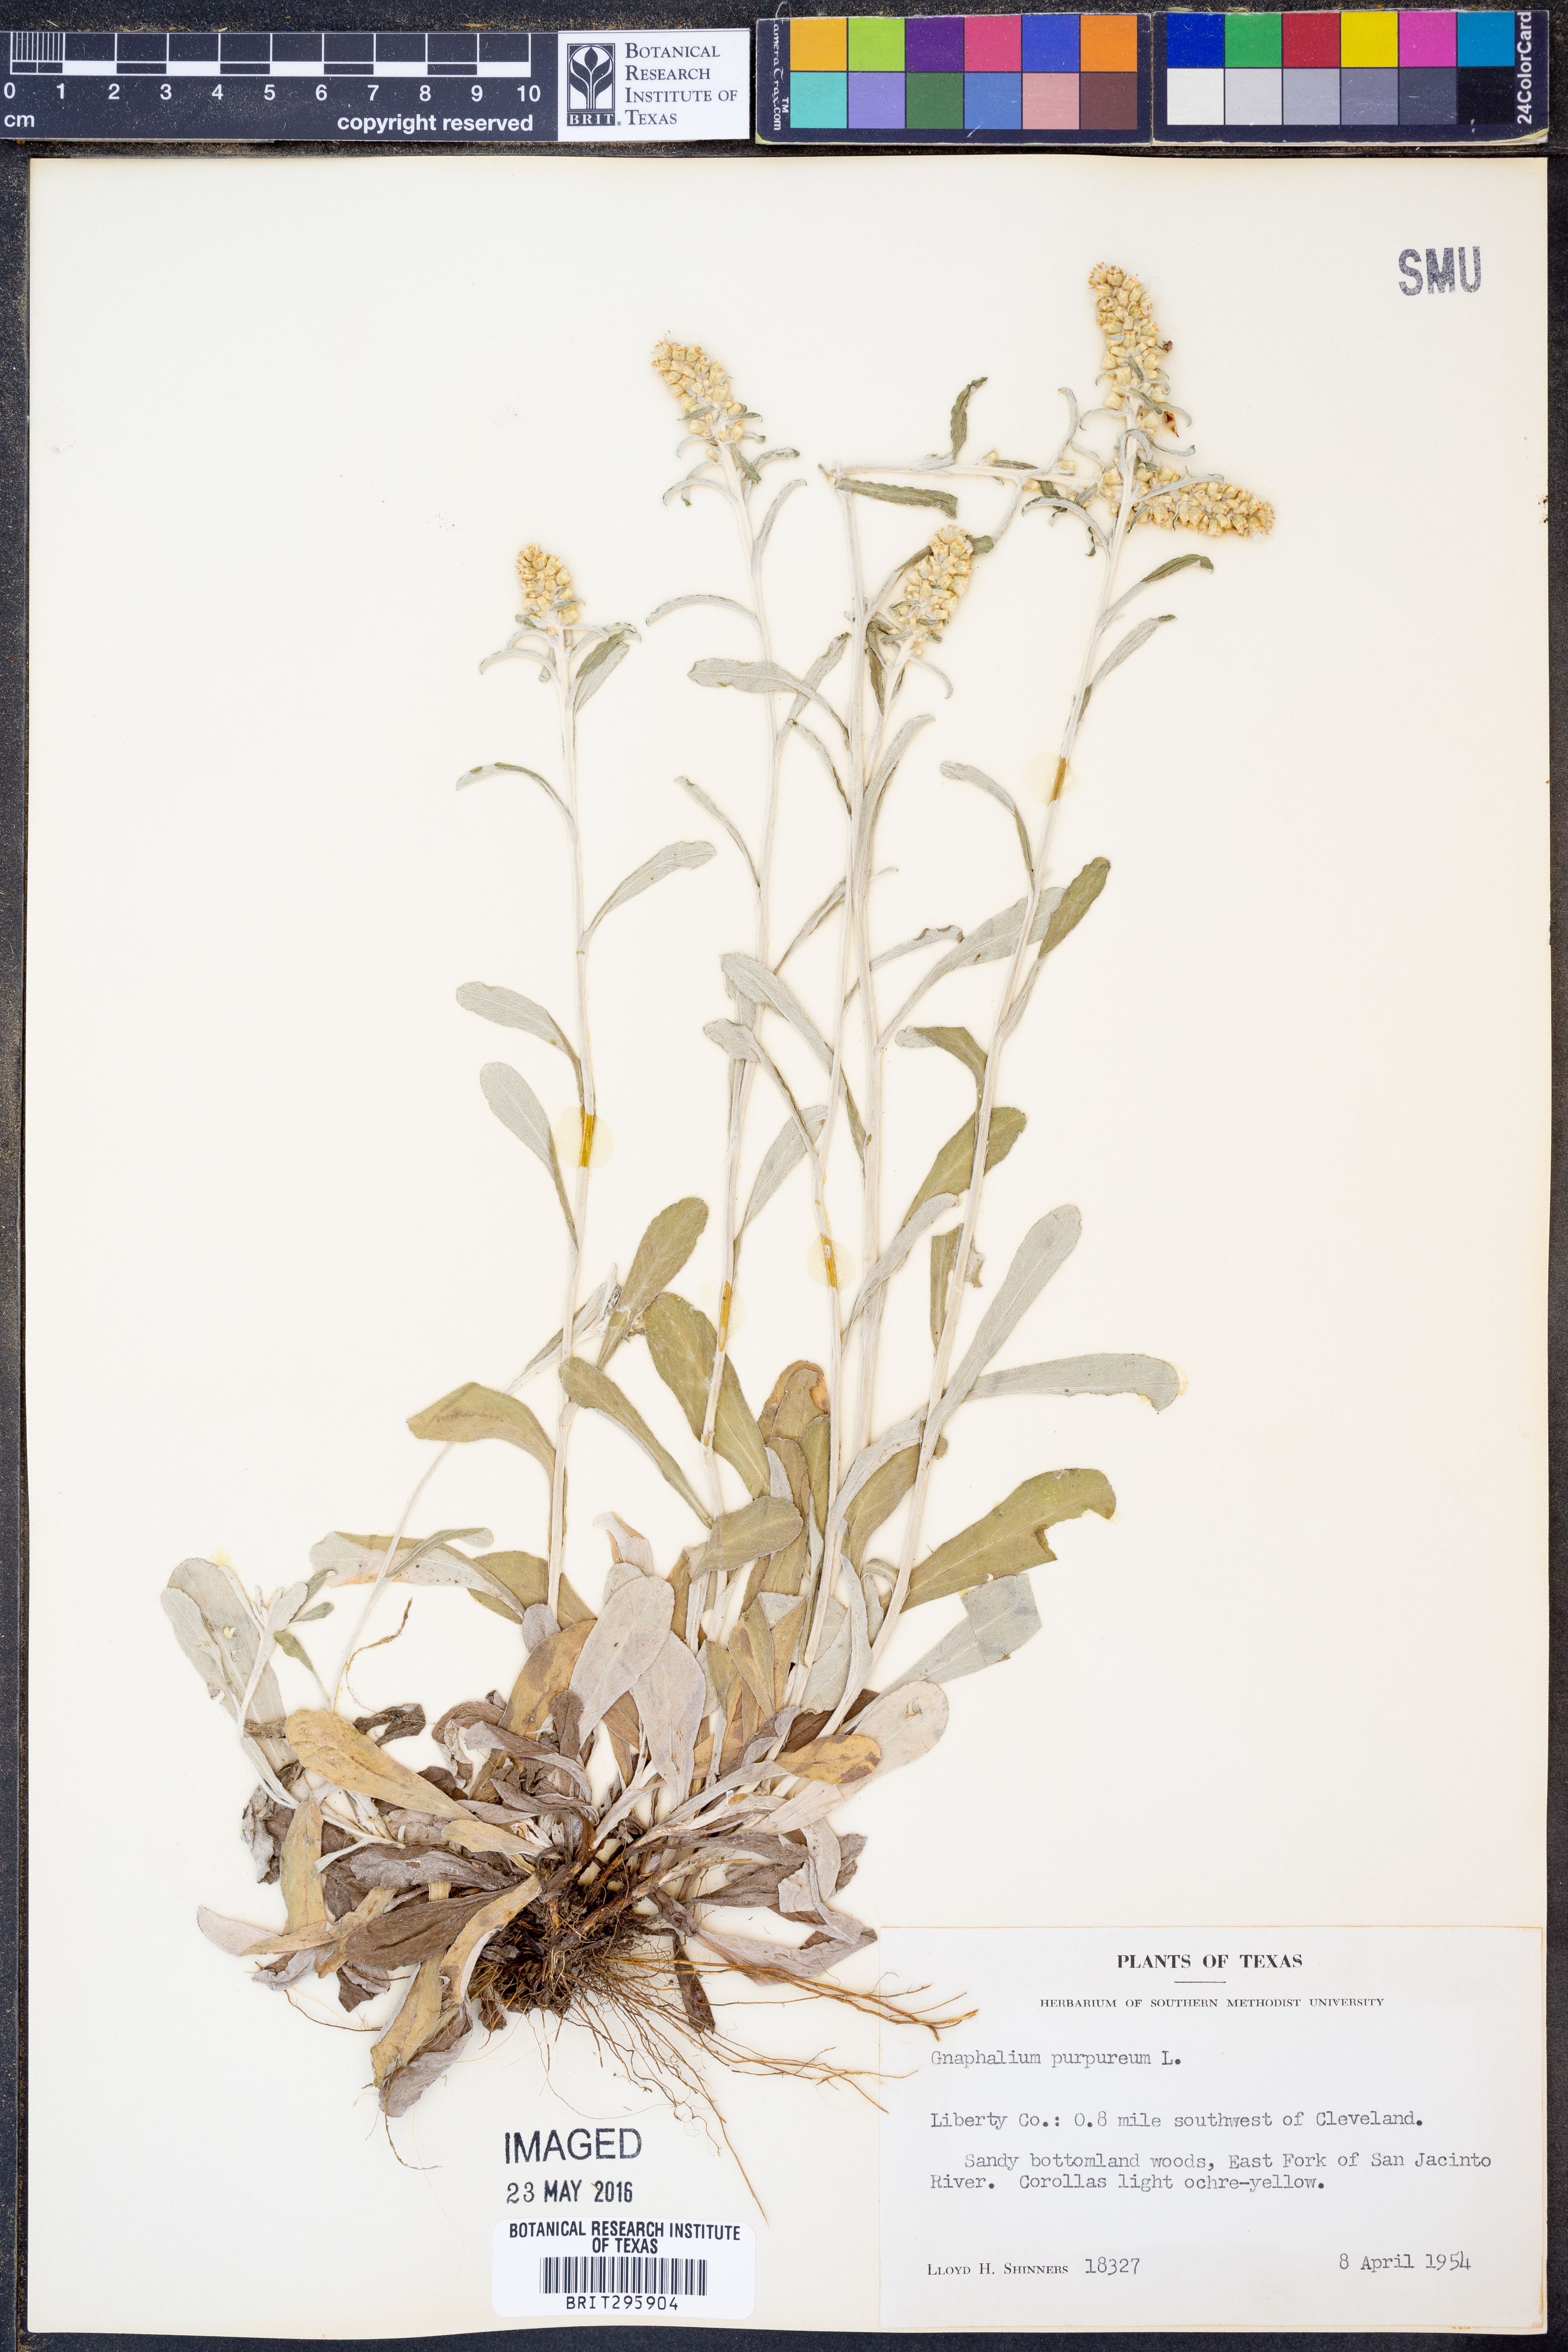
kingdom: Plantae
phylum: Tracheophyta
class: Magnoliopsida
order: Asterales
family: Asteraceae
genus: Gamochaeta
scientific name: Gamochaeta purpurea
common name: Purple cudweed
